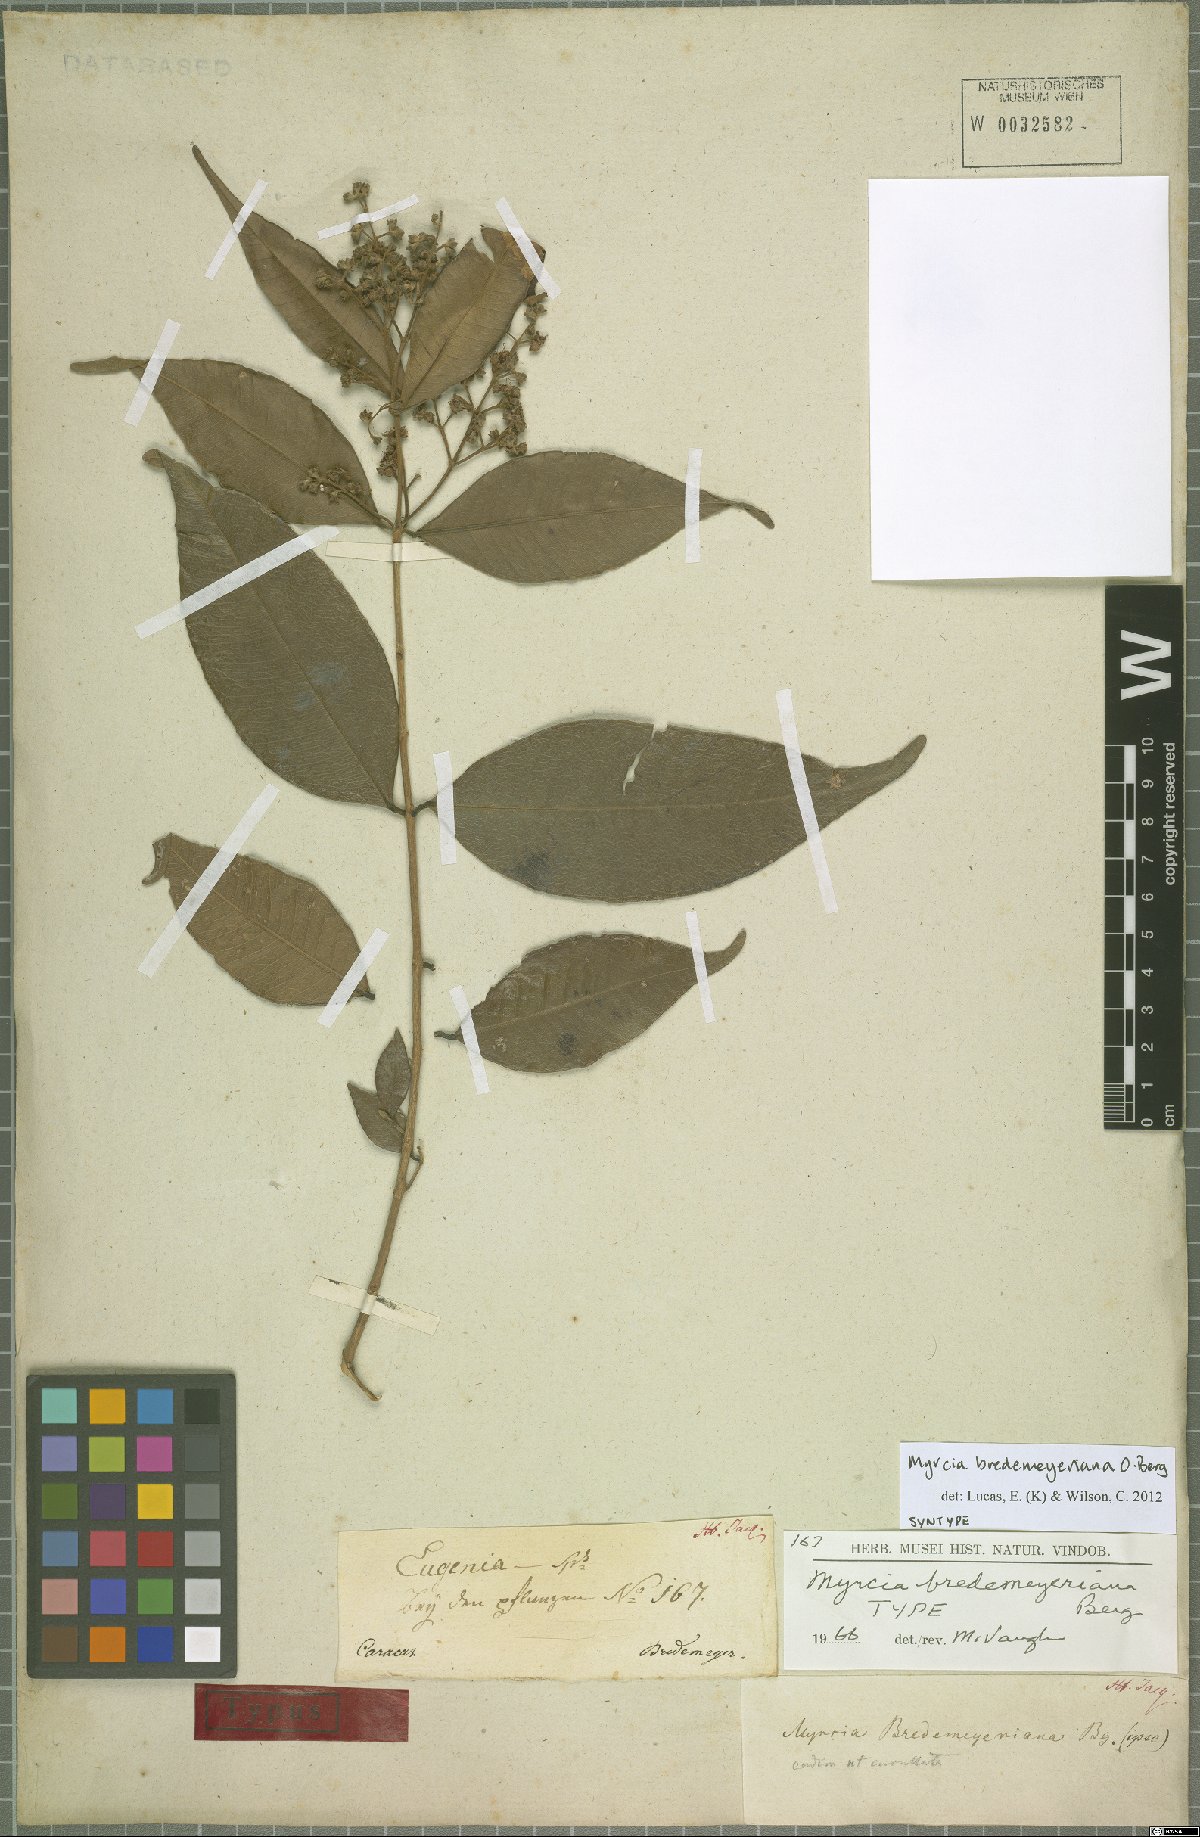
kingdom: Plantae
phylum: Tracheophyta
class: Magnoliopsida
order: Myrtales
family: Myrtaceae
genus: Myrcia
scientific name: Myrcia bredemeyeriana
